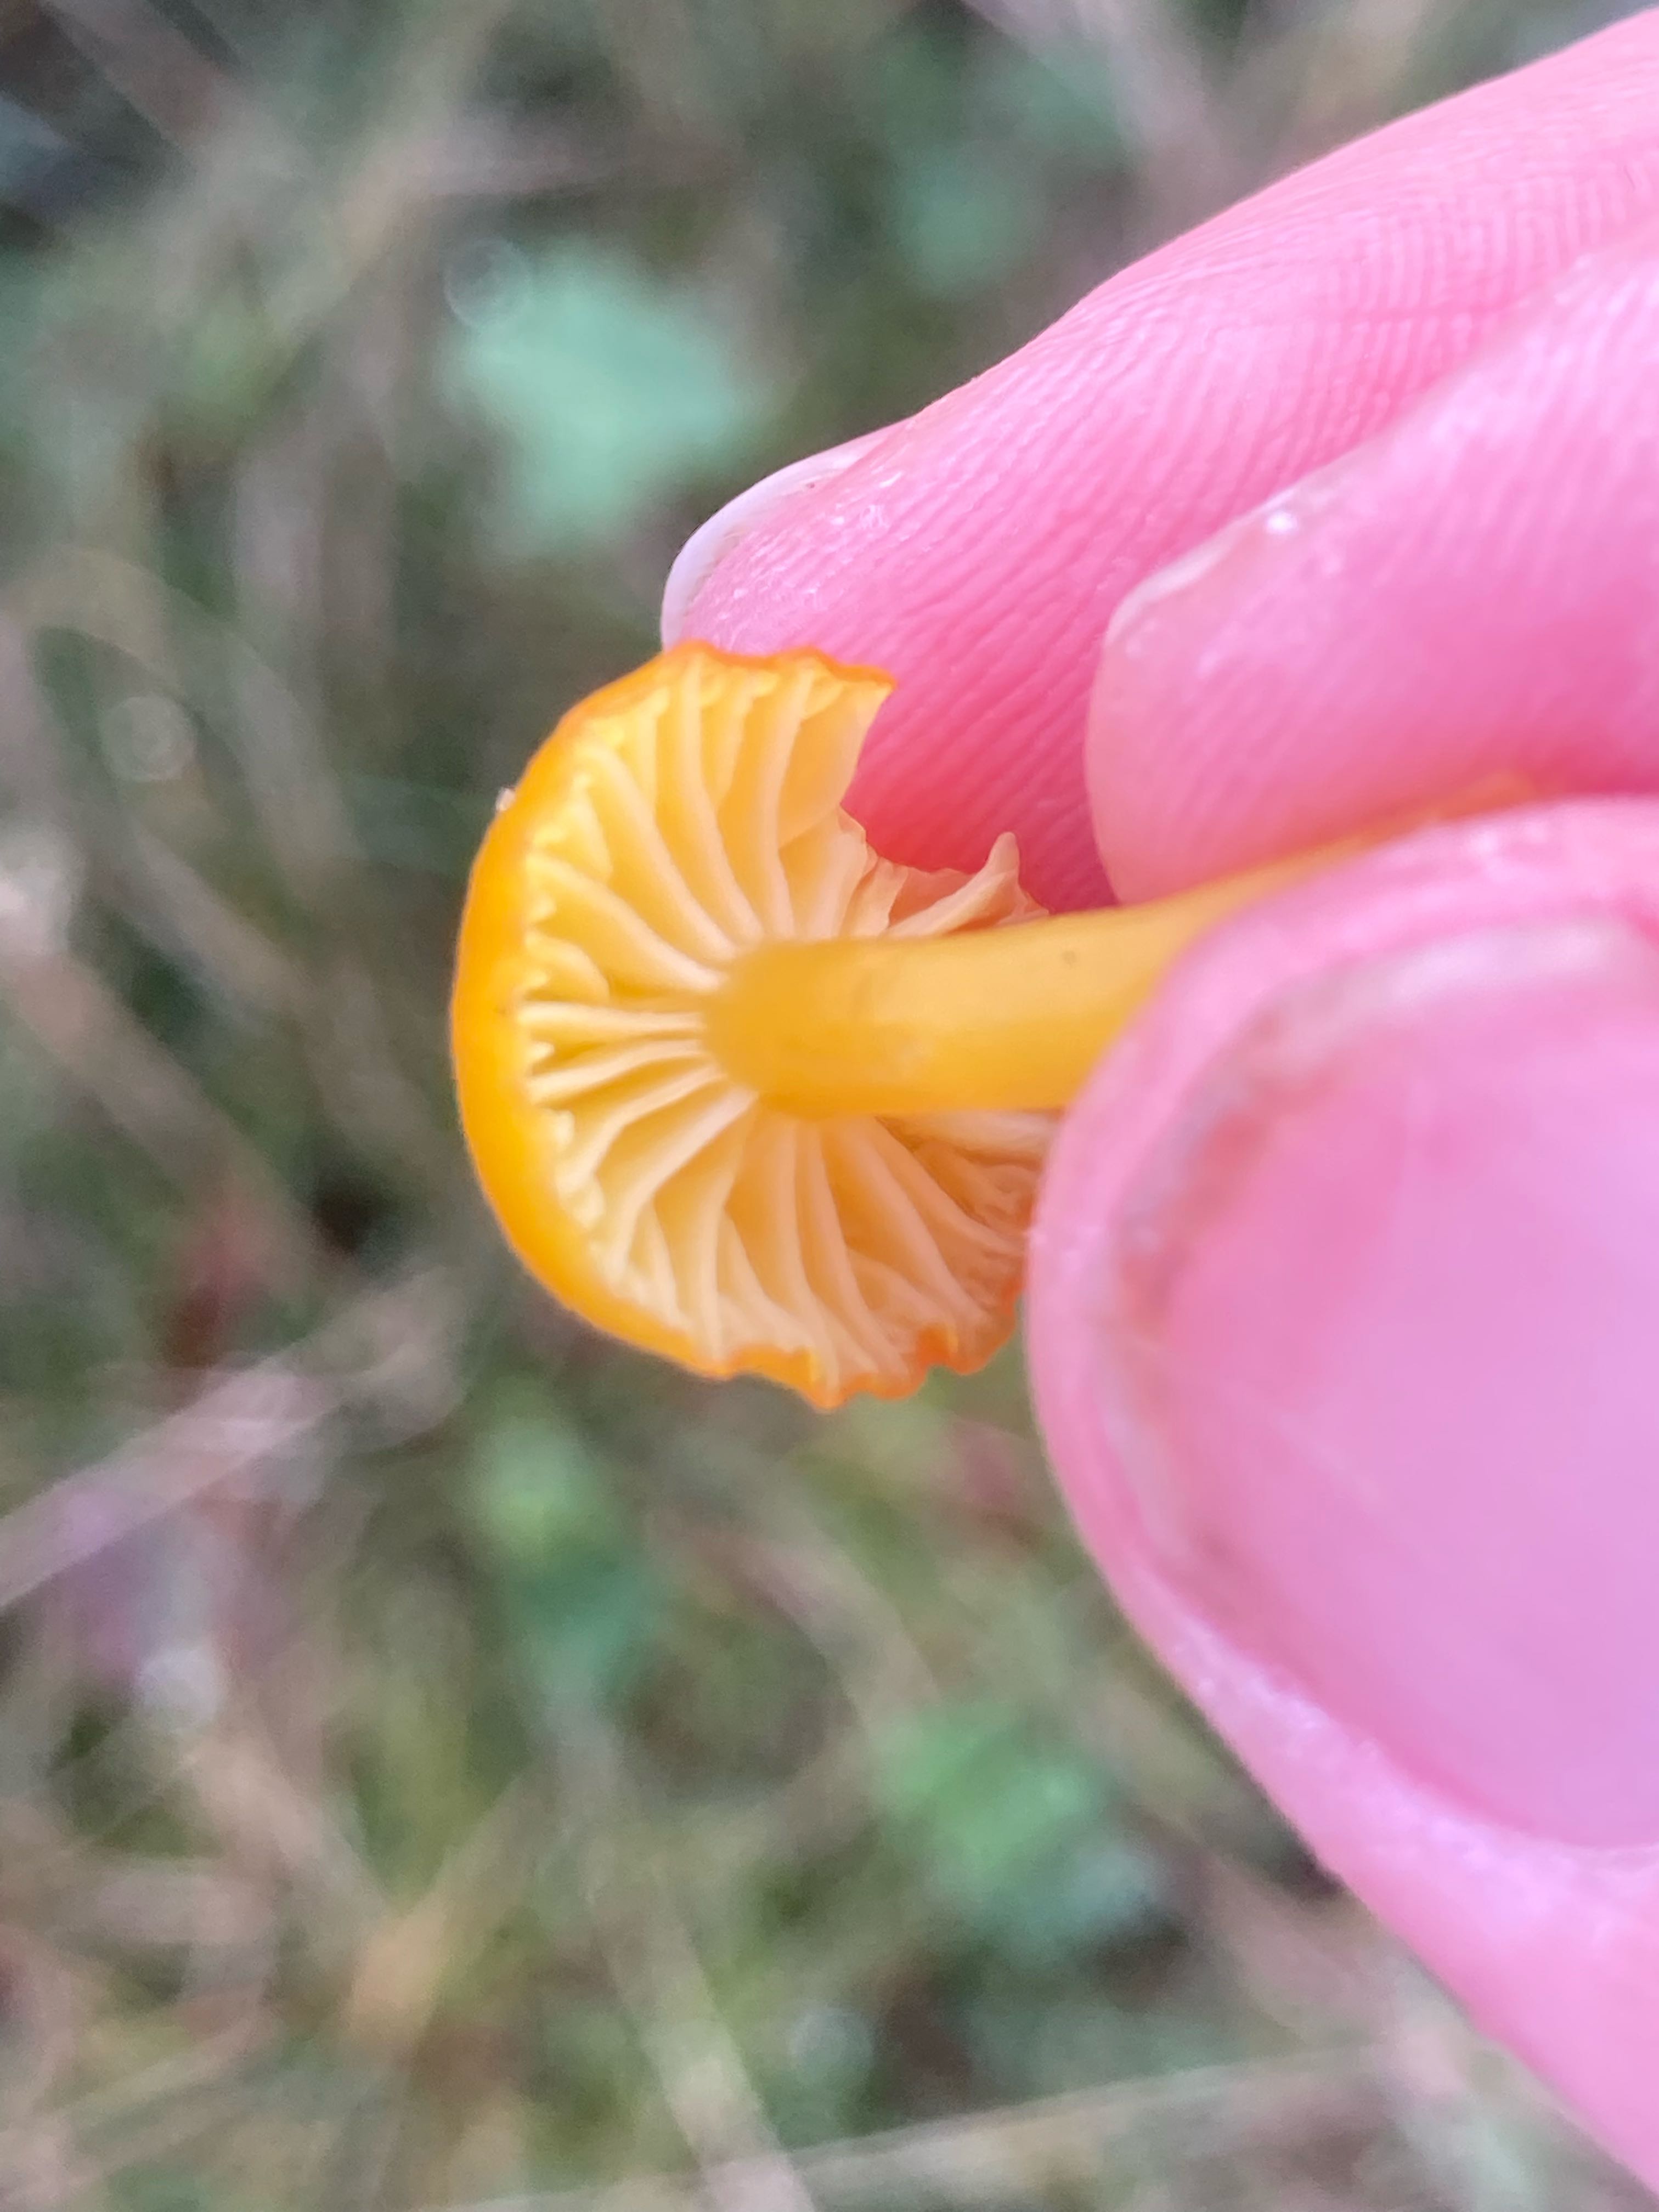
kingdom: Fungi
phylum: Basidiomycota
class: Agaricomycetes
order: Agaricales
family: Hygrophoraceae
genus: Hygrocybe
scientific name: Hygrocybe ceracea
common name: voksgul vokshat
